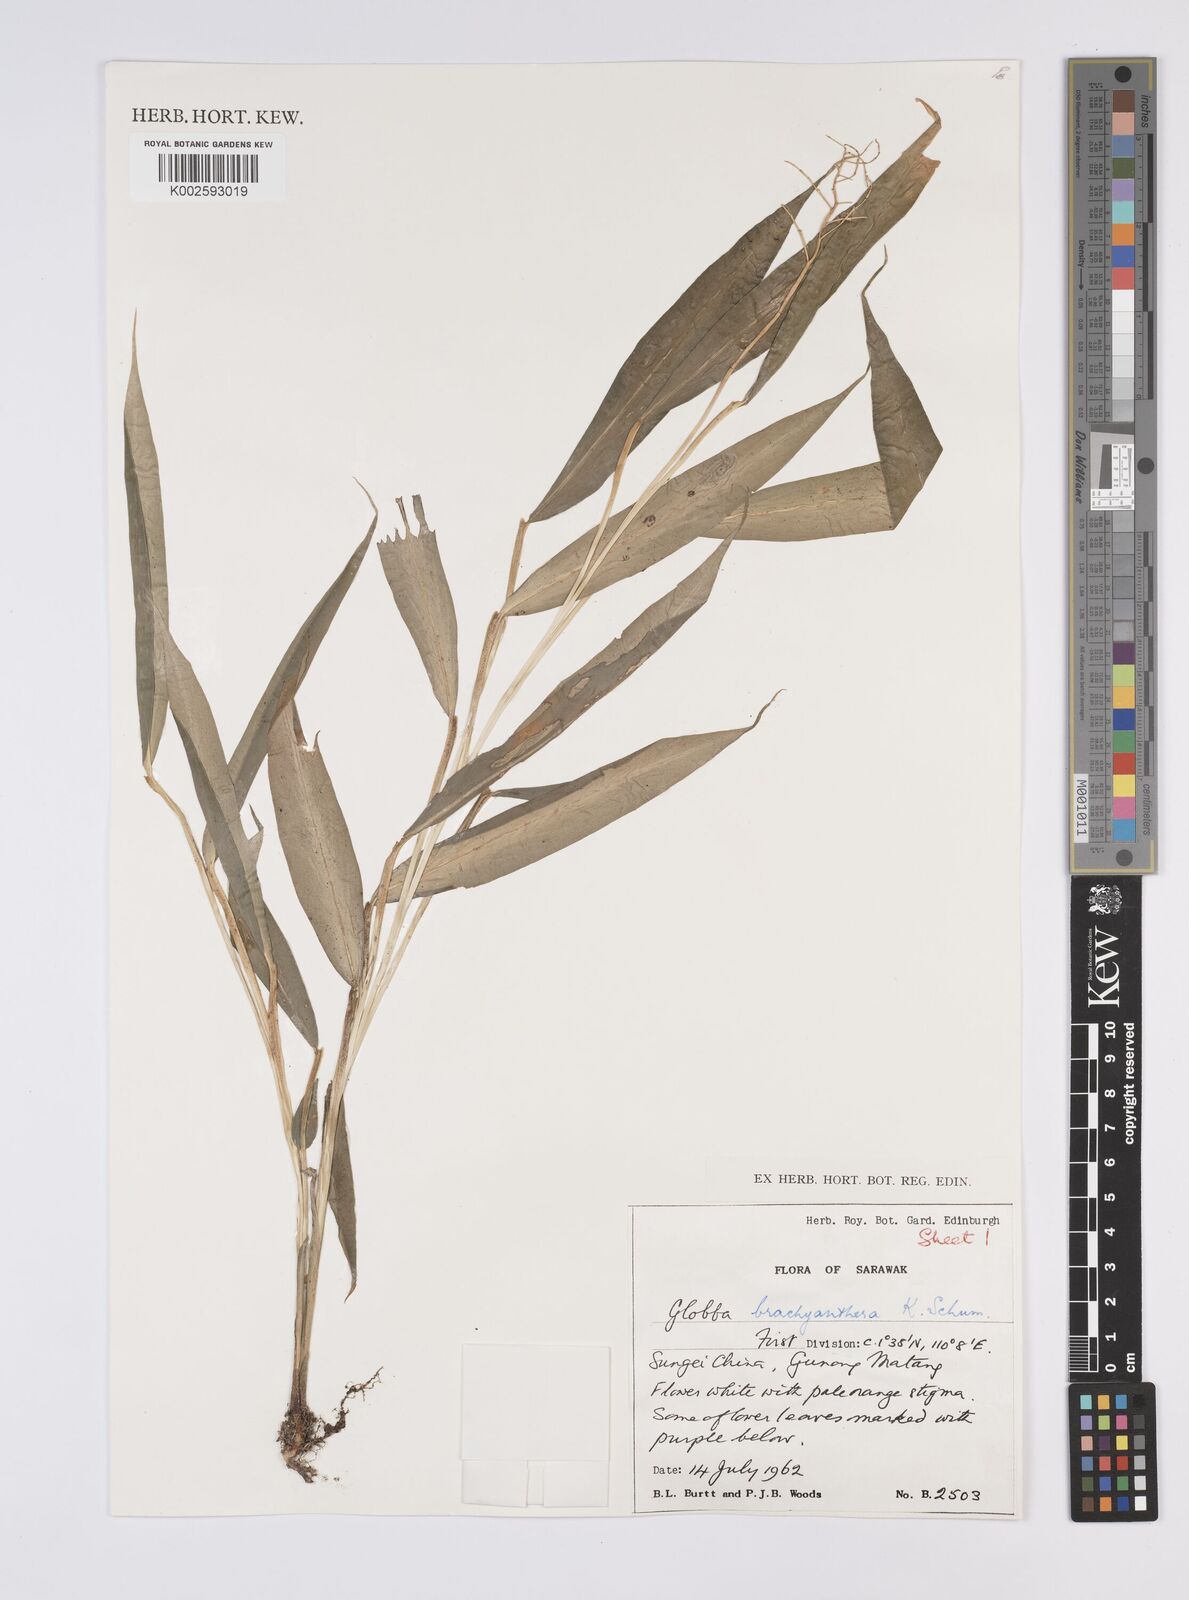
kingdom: Plantae
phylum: Tracheophyta
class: Liliopsida
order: Zingiberales
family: Zingiberaceae
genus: Globba
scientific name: Globba brachyanthera
